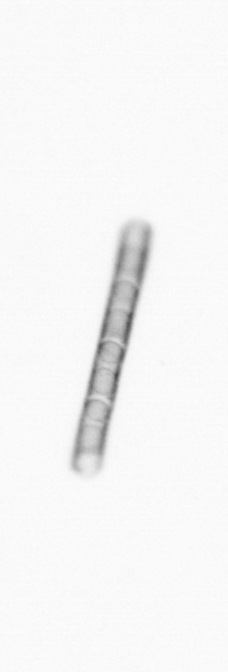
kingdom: Chromista
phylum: Ochrophyta
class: Bacillariophyceae
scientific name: Bacillariophyceae
